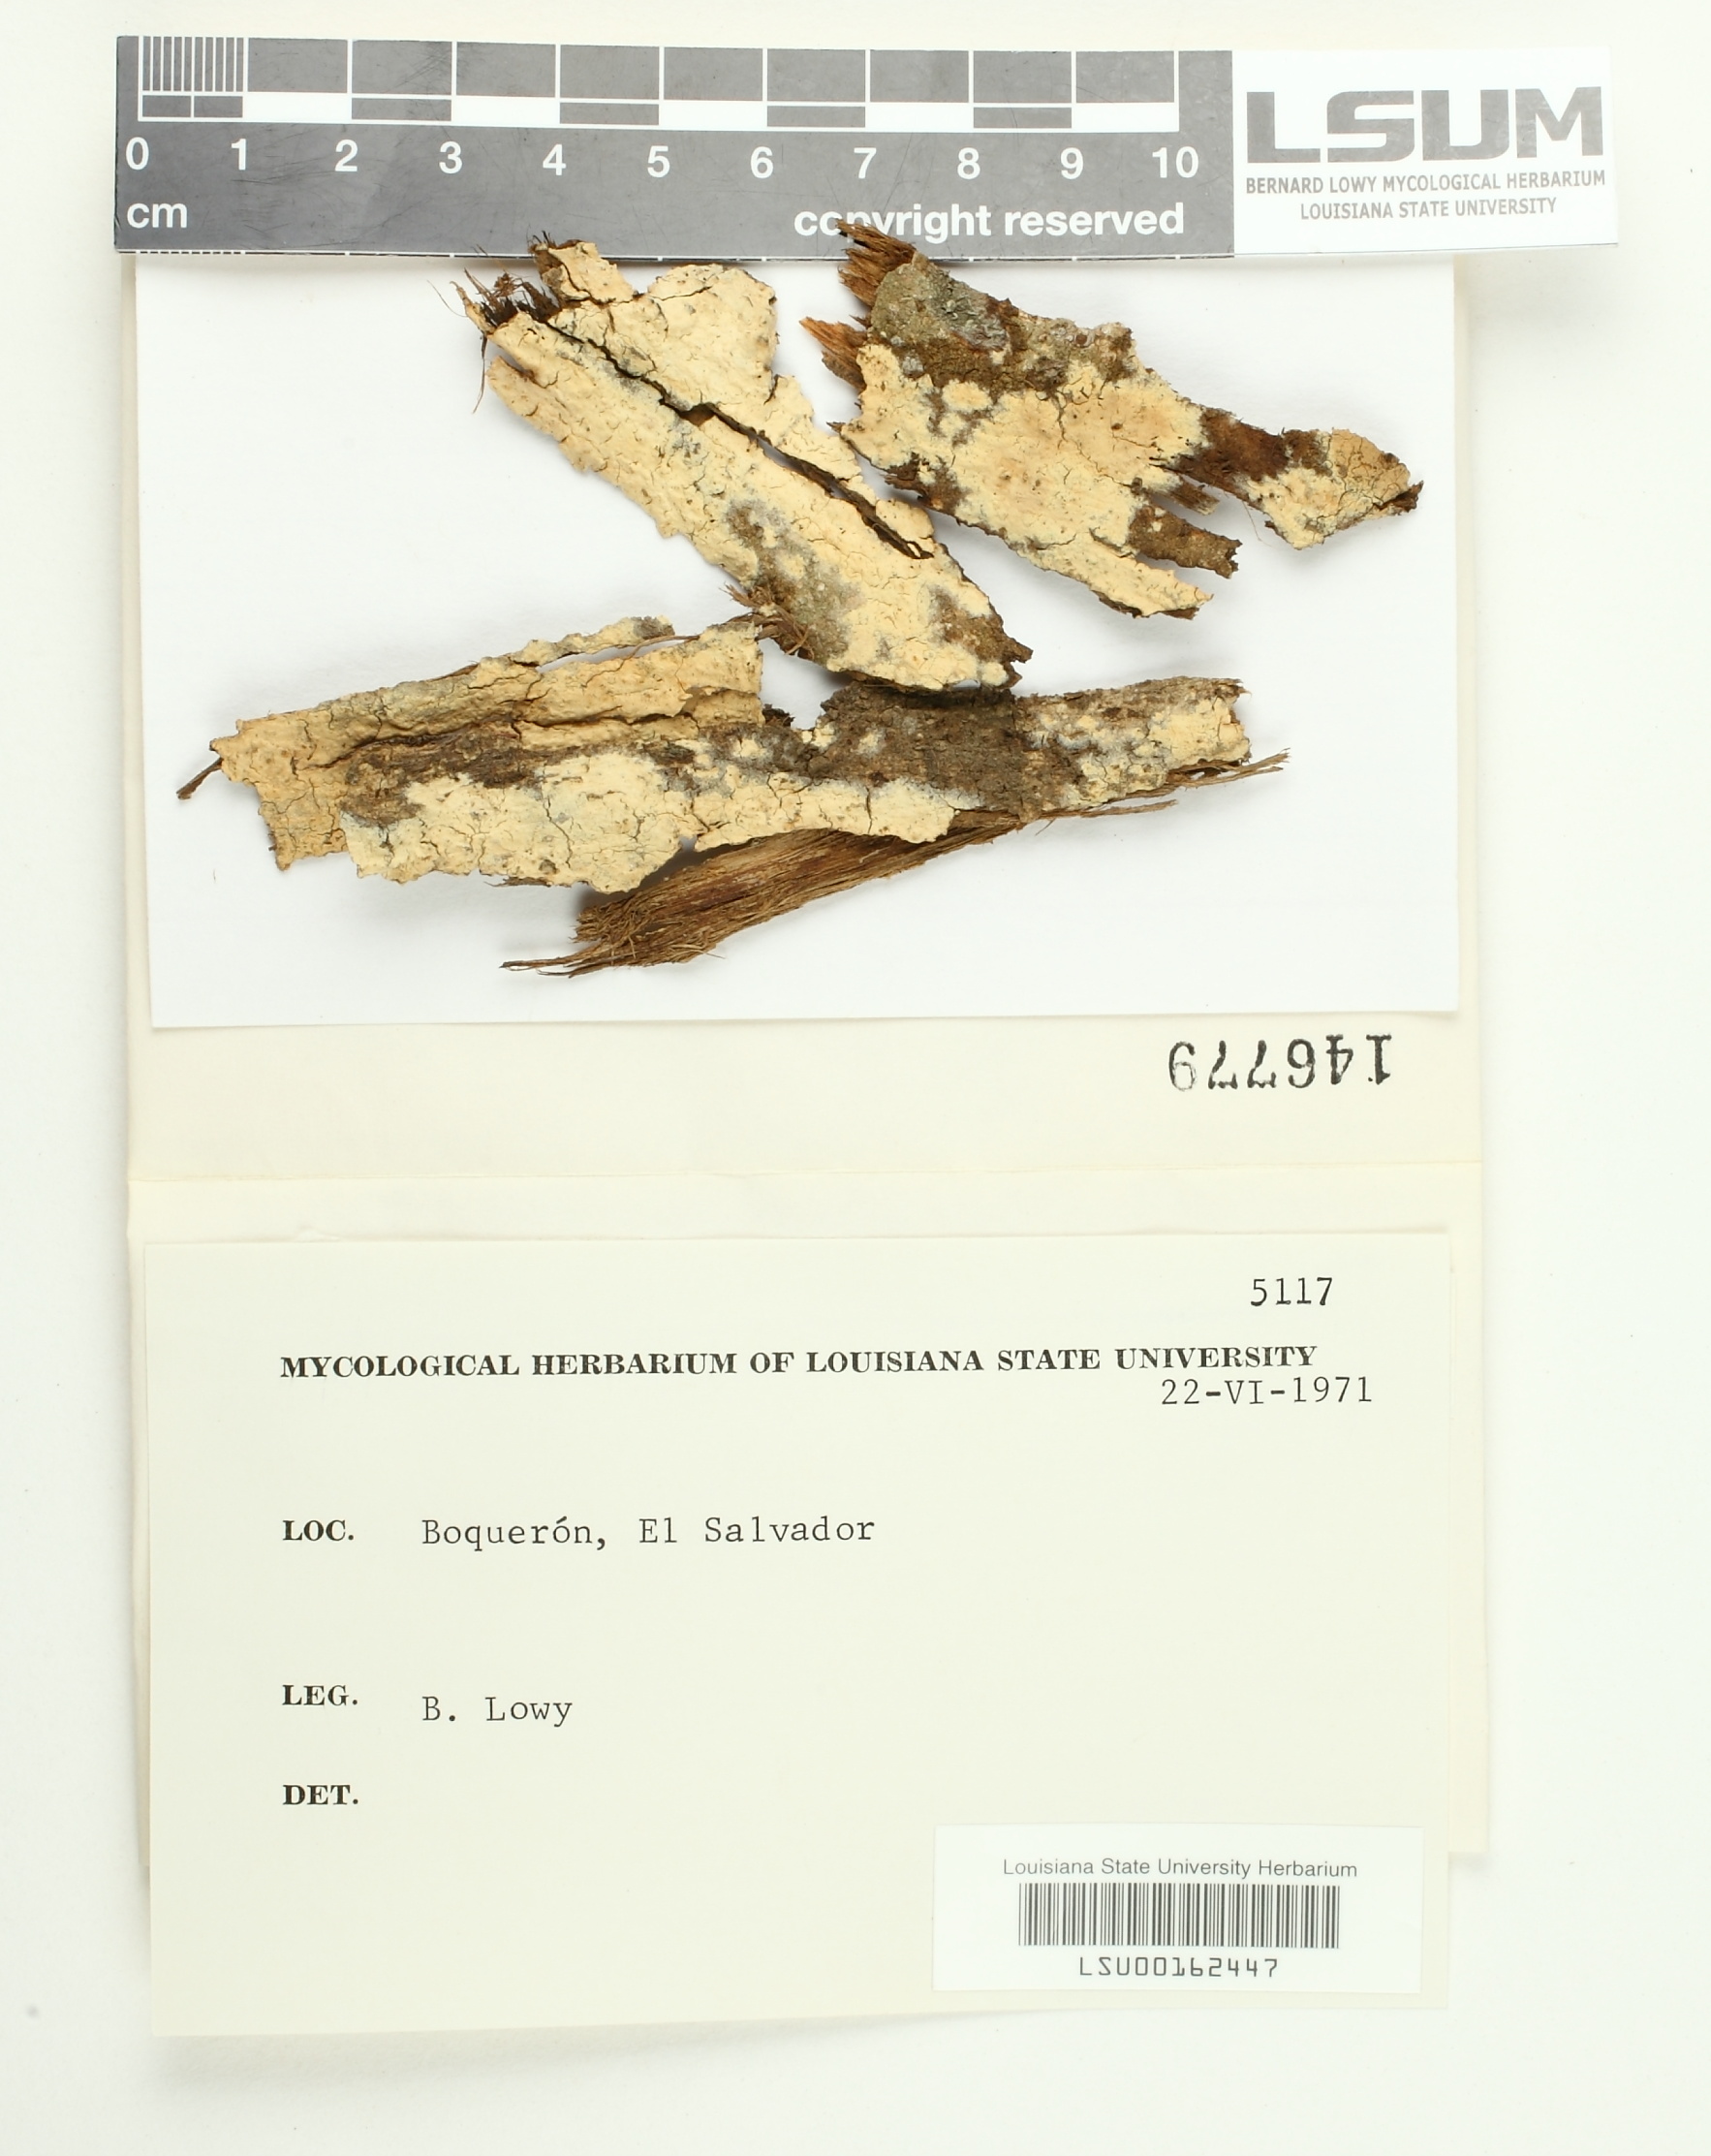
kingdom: Fungi
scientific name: Fungi
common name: Fungi
